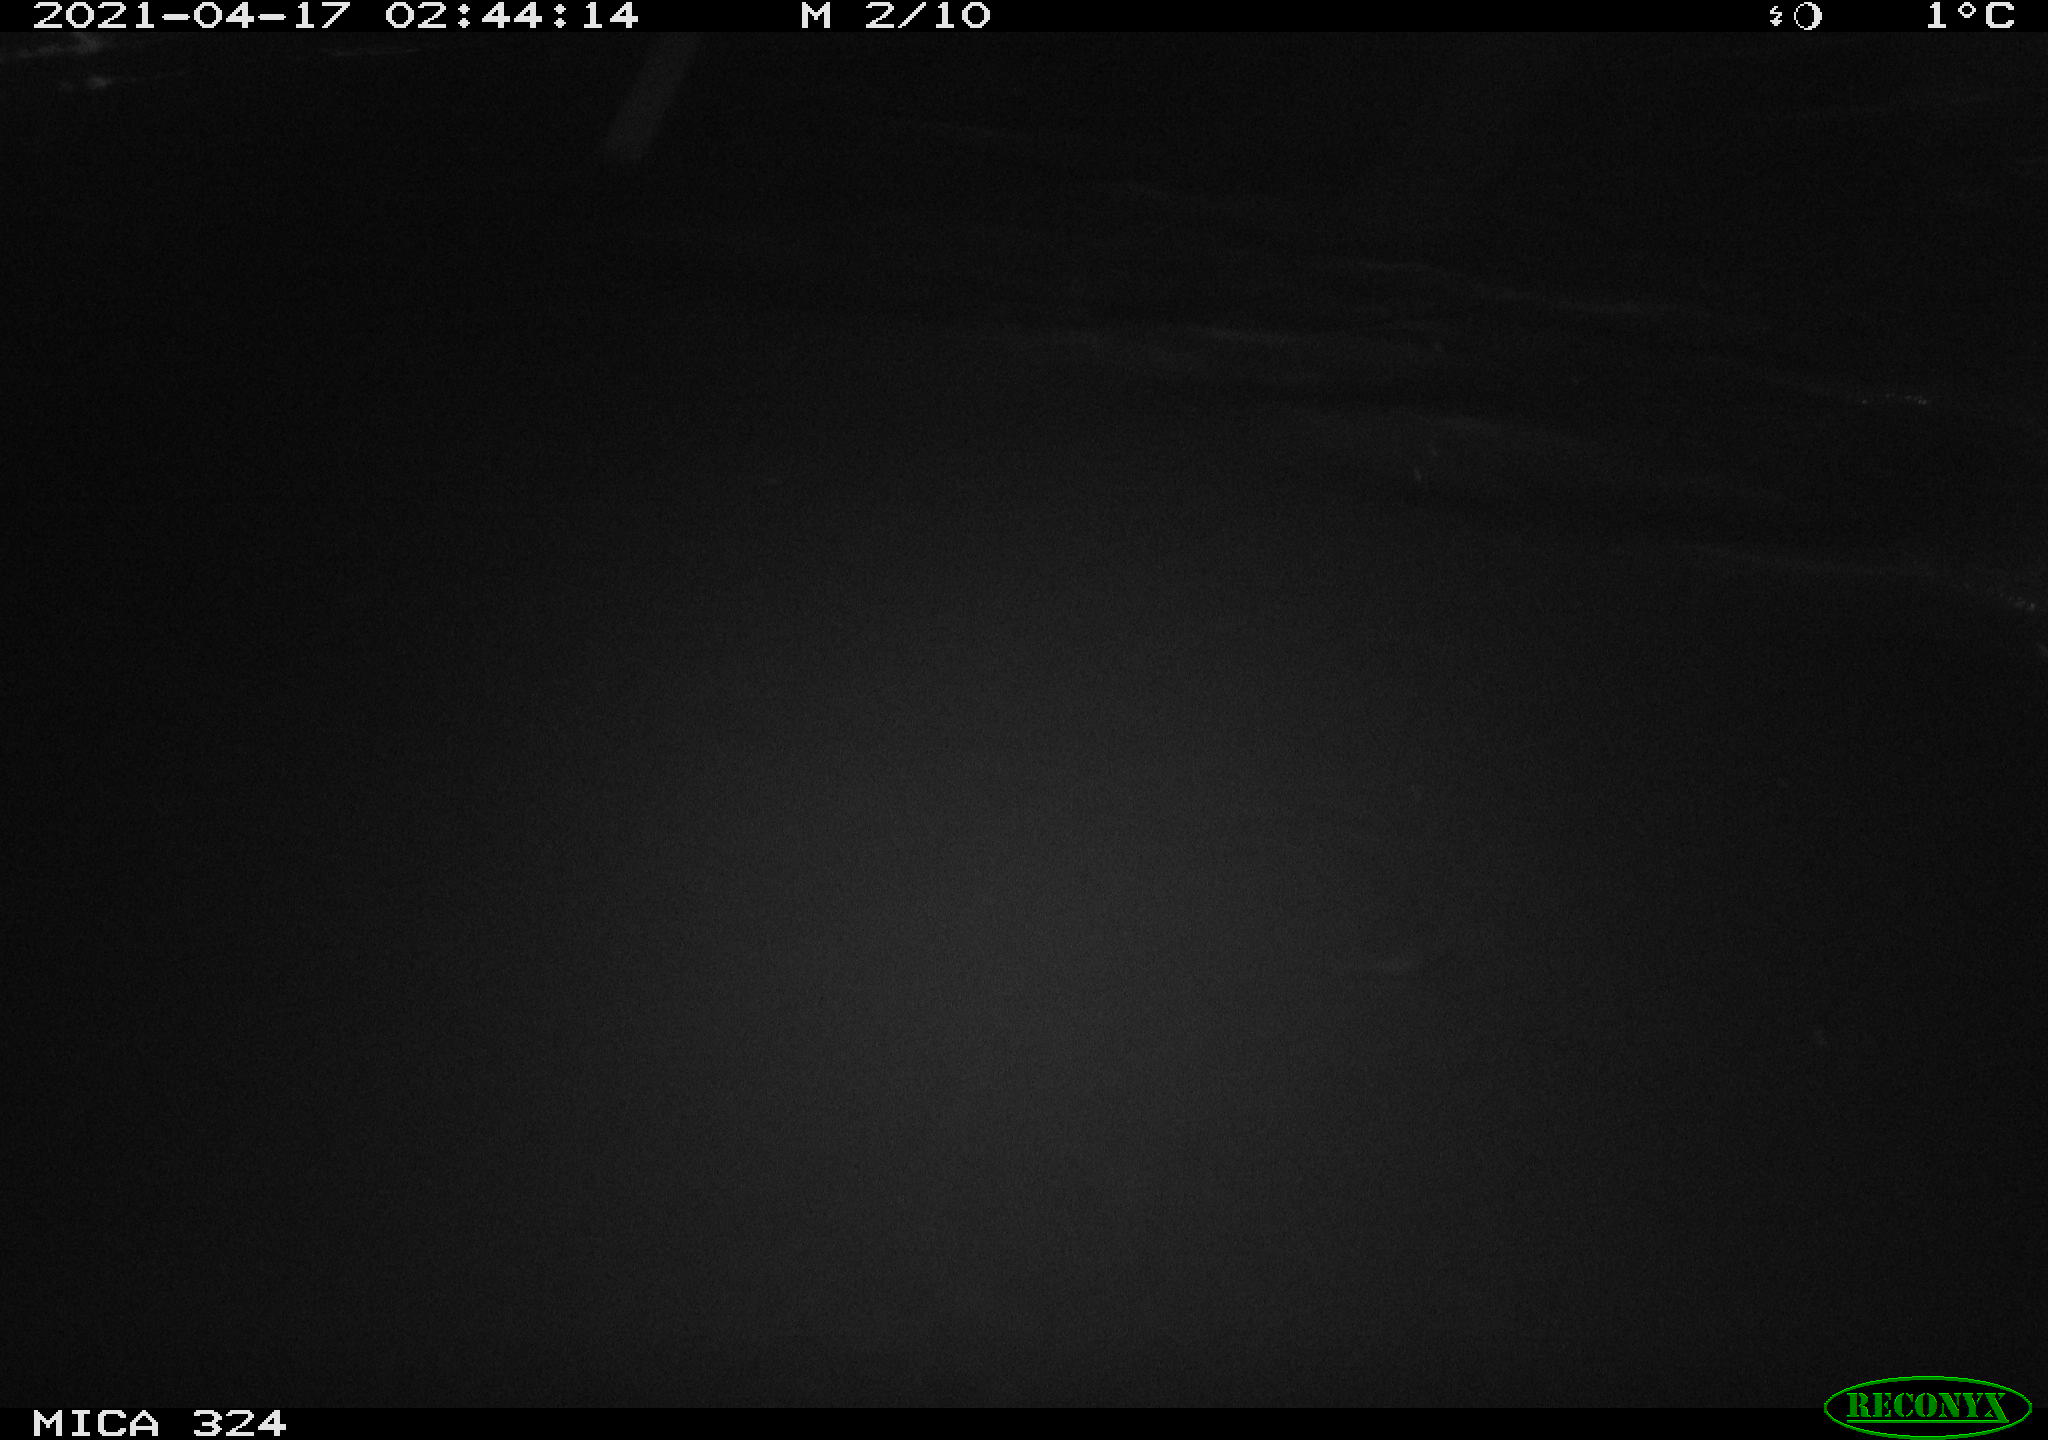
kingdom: Animalia
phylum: Chordata
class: Aves
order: Anseriformes
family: Anatidae
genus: Anas
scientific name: Anas platyrhynchos
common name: Mallard
